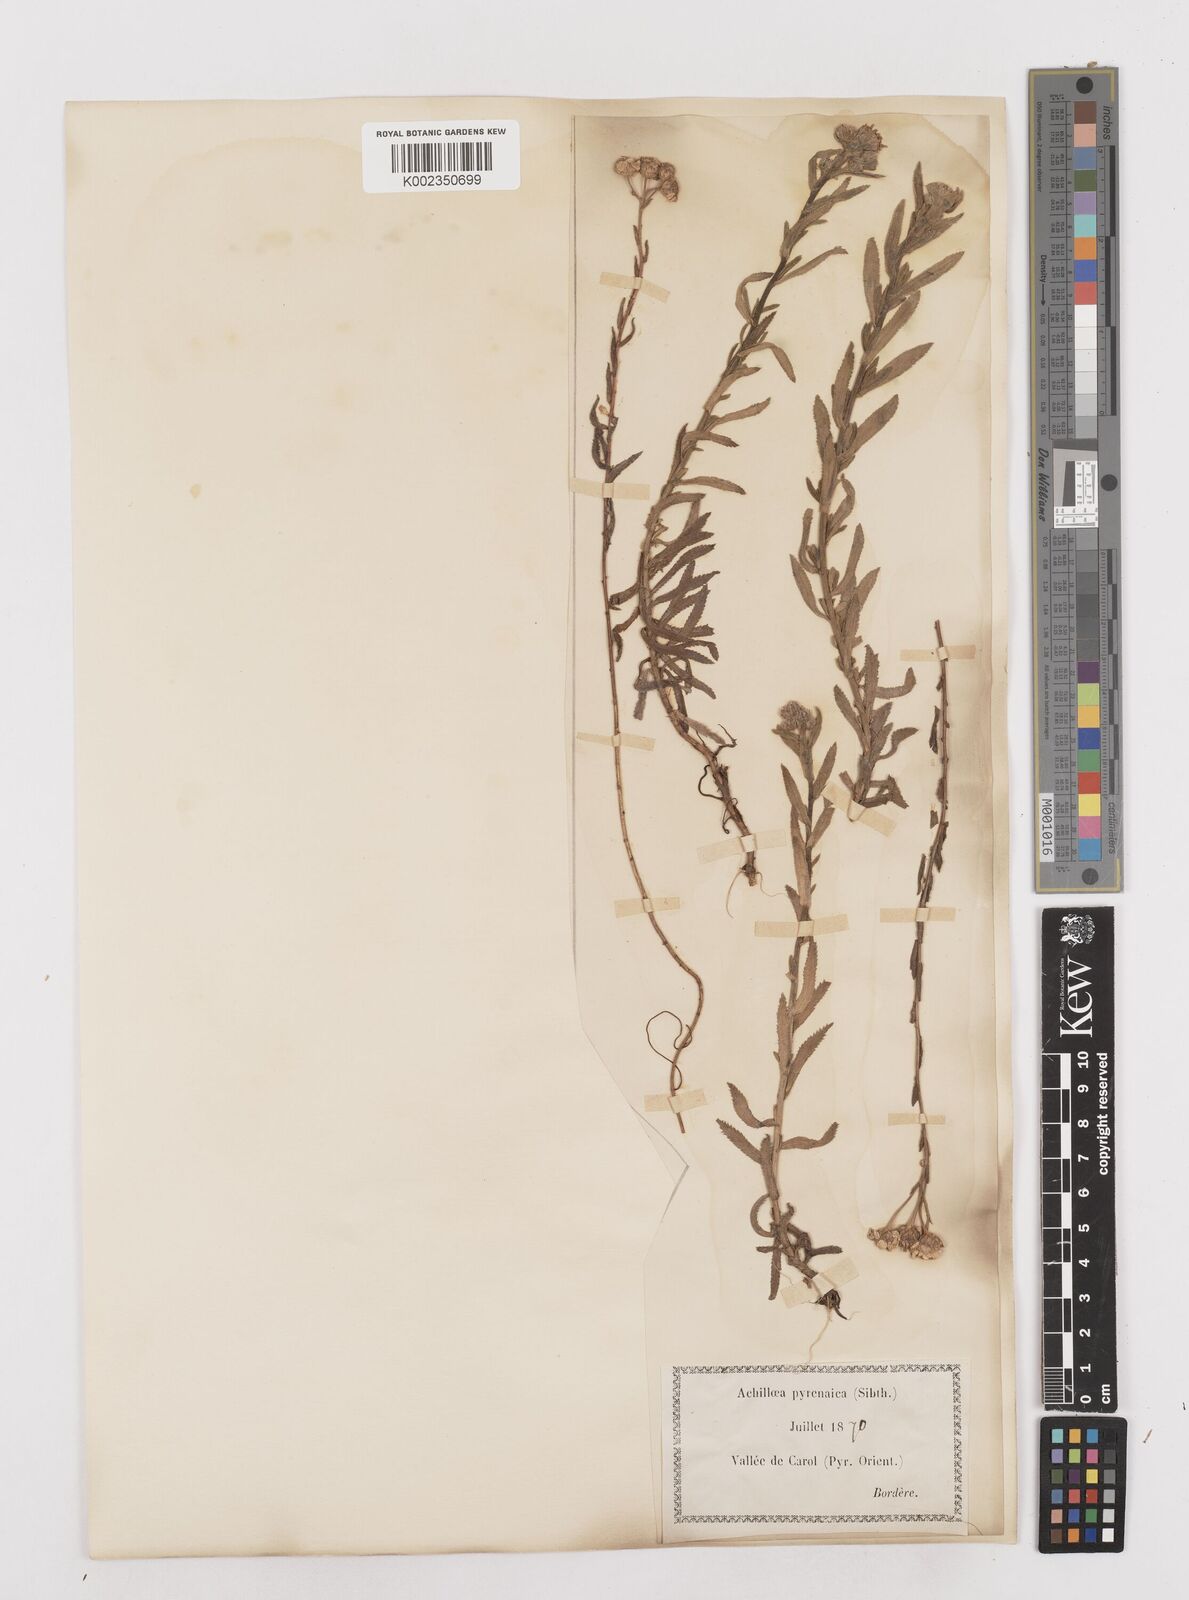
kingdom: Plantae
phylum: Tracheophyta
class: Magnoliopsida
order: Asterales
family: Asteraceae
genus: Achillea
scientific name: Achillea pyrenaica
